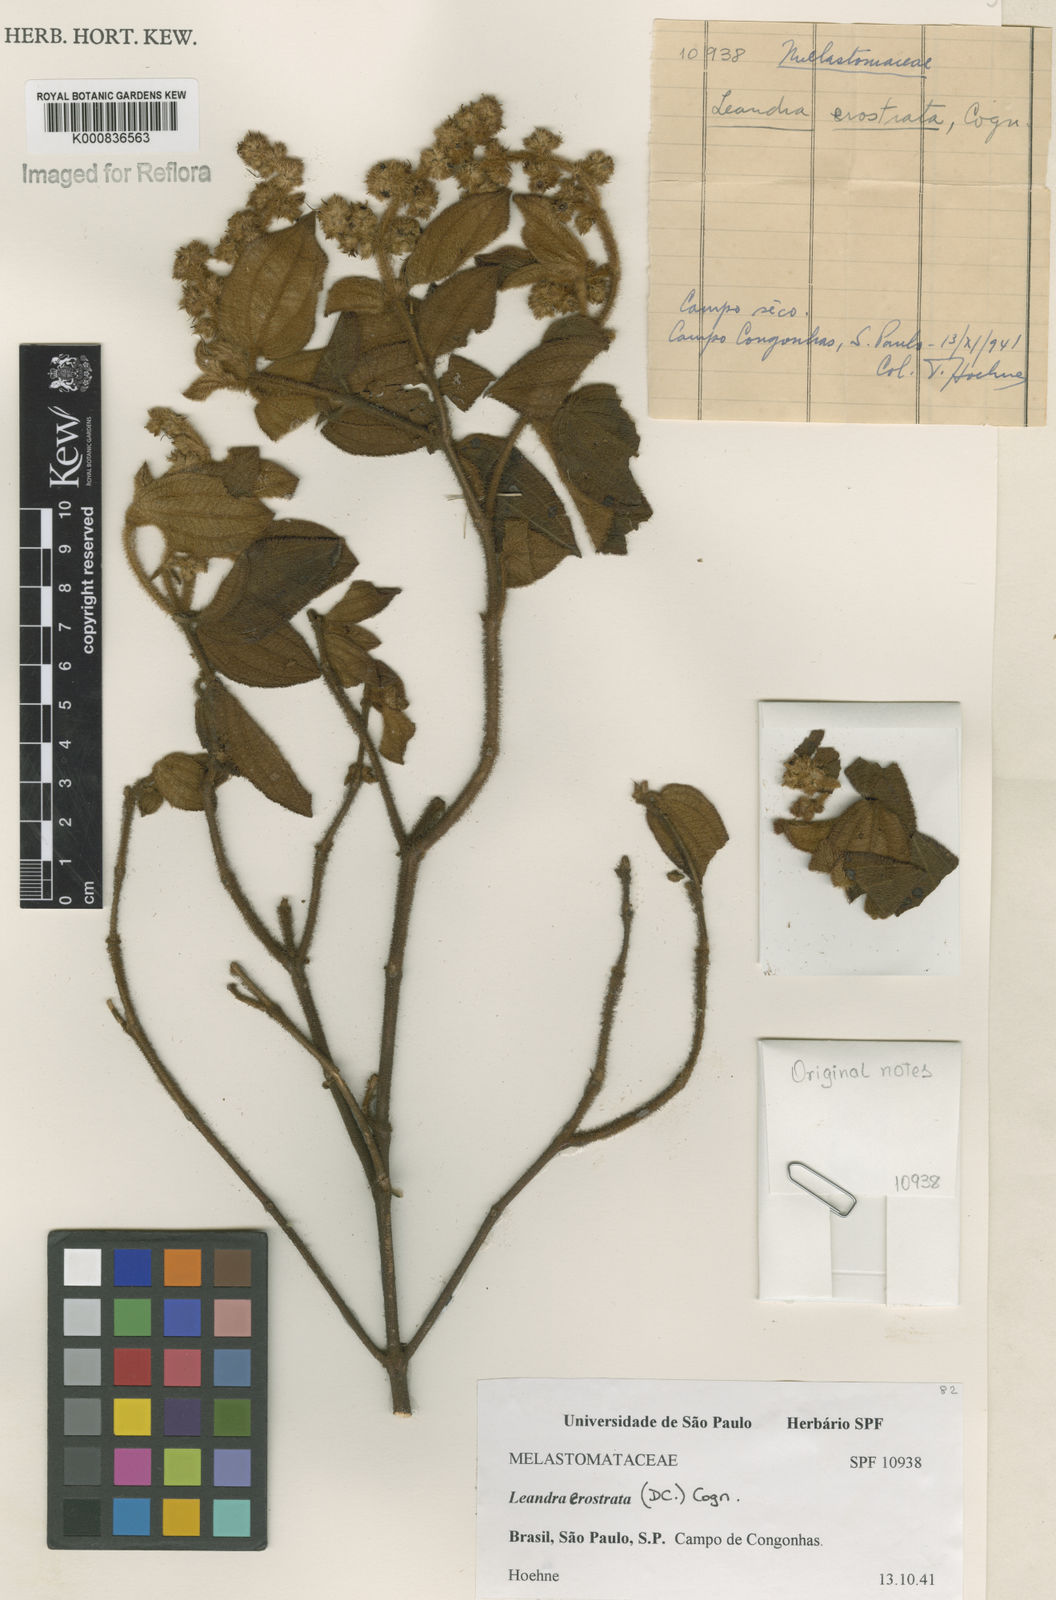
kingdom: Plantae
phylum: Tracheophyta
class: Magnoliopsida
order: Myrtales
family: Melastomataceae
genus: Miconia
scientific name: Miconia erostrata
